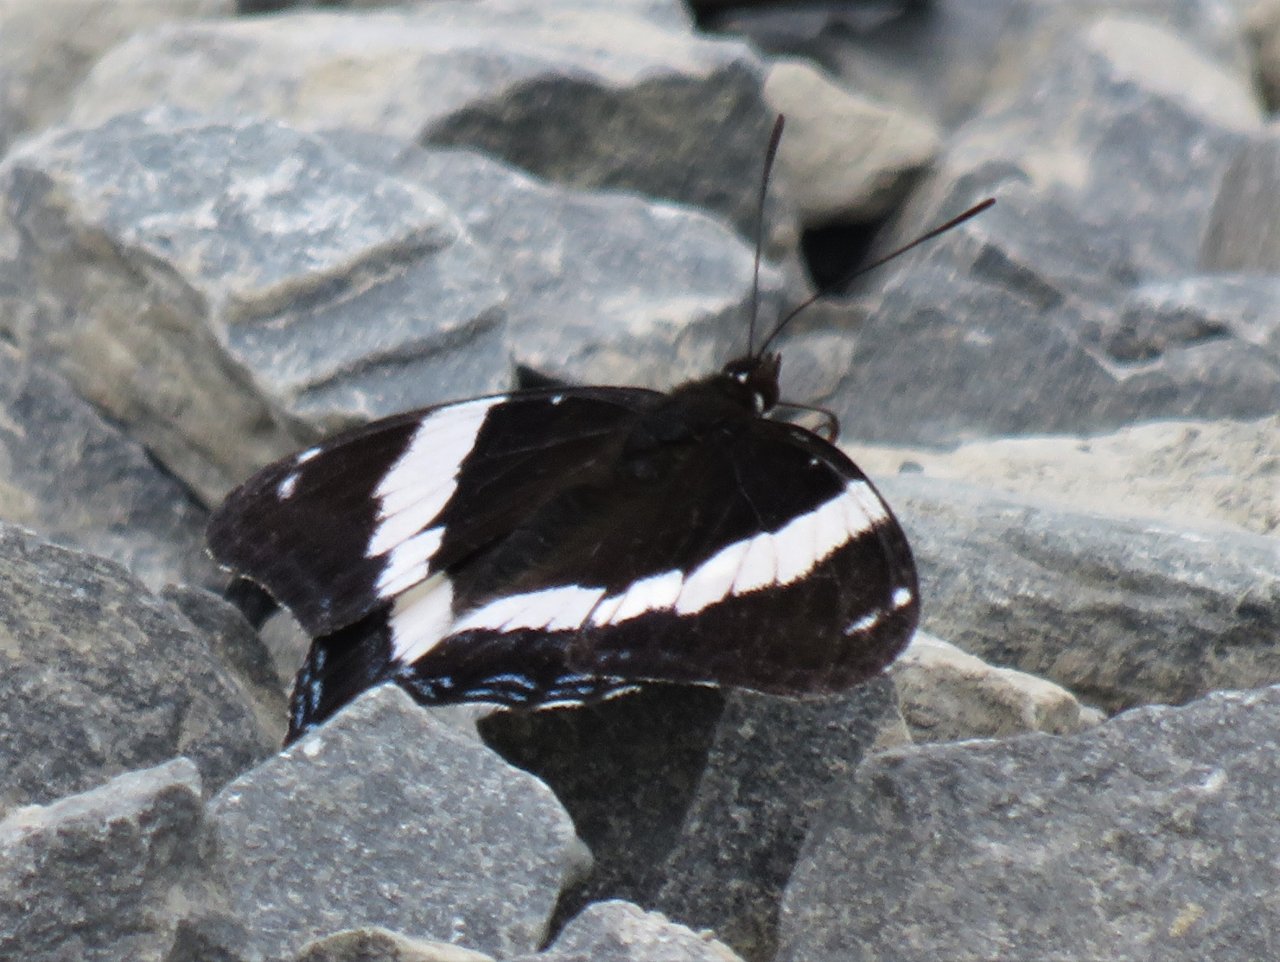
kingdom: Animalia
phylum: Arthropoda
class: Insecta
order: Lepidoptera
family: Nymphalidae
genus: Limenitis
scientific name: Limenitis arthemis
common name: Red-spotted Admiral
